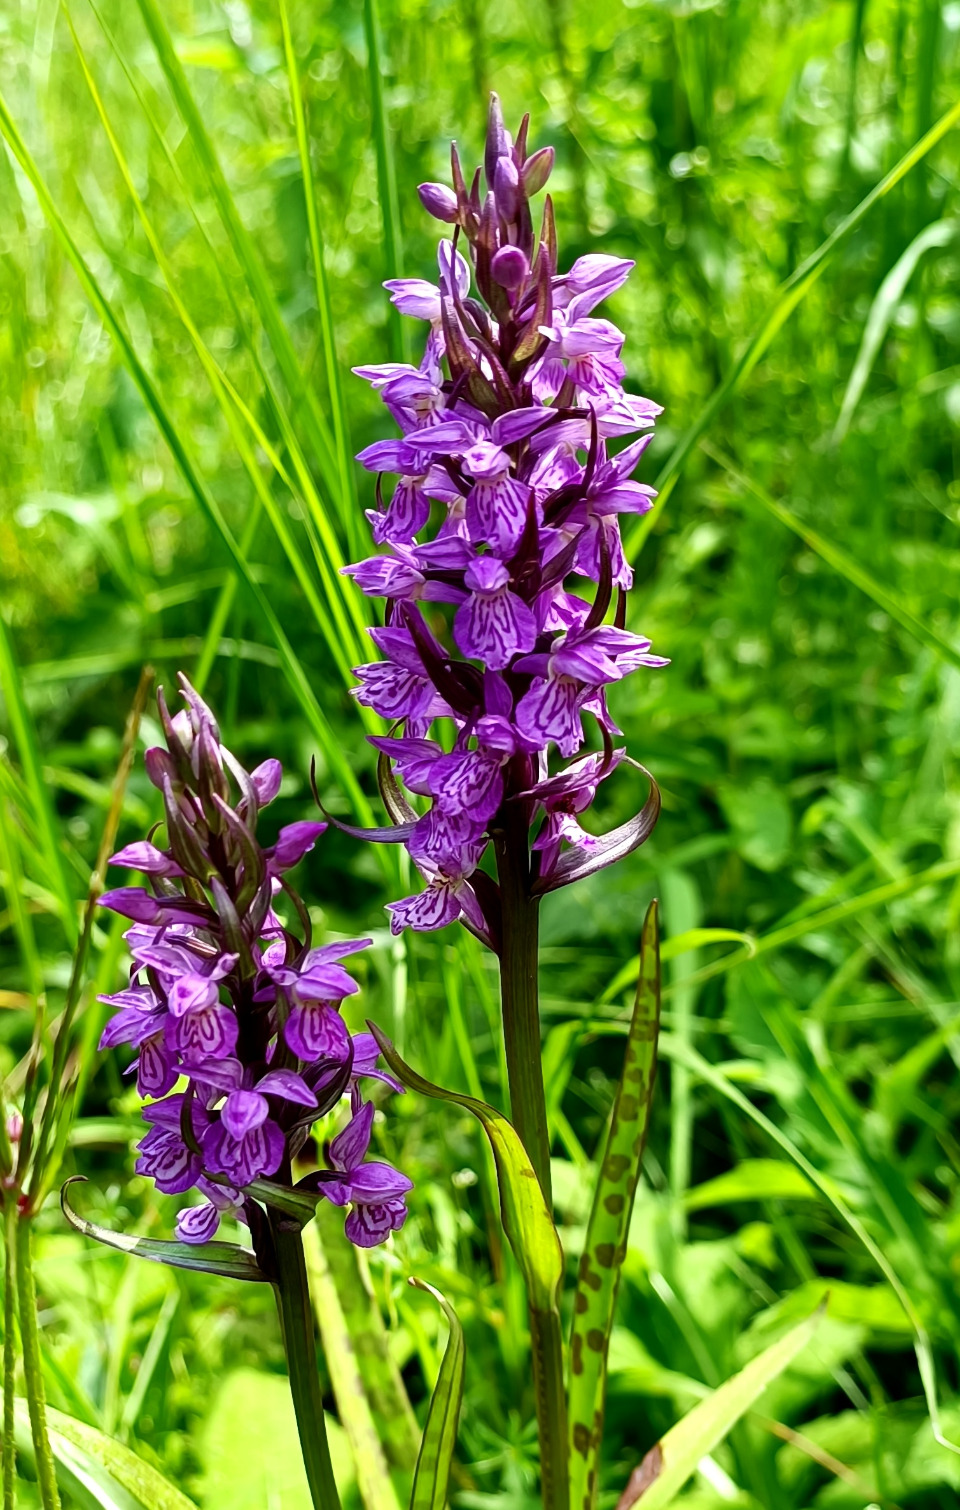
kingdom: Plantae
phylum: Tracheophyta
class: Liliopsida
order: Asparagales
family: Orchidaceae
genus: Dactylorhiza
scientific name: Dactylorhiza maculata
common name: Plettet gøgeurt
